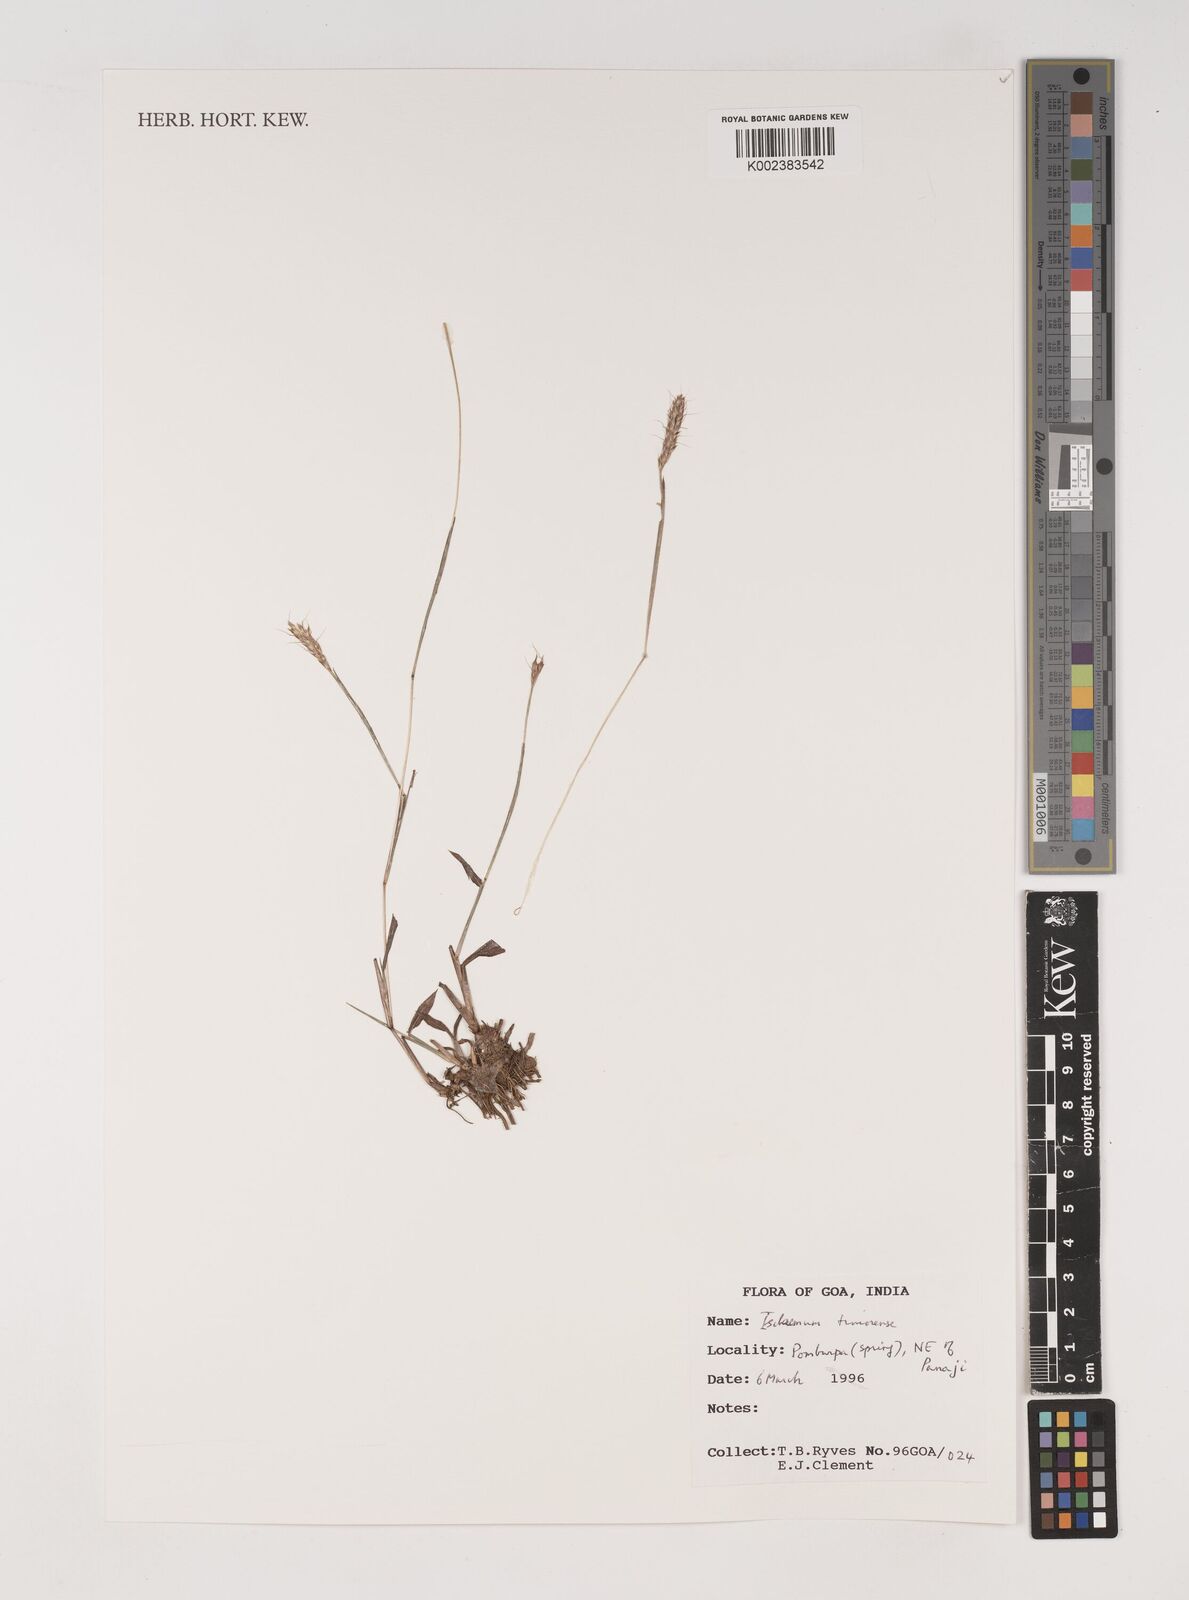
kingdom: Plantae
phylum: Tracheophyta
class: Liliopsida
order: Poales
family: Poaceae
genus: Ischaemum
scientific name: Ischaemum timorense
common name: Stalkleaf murainagrass
